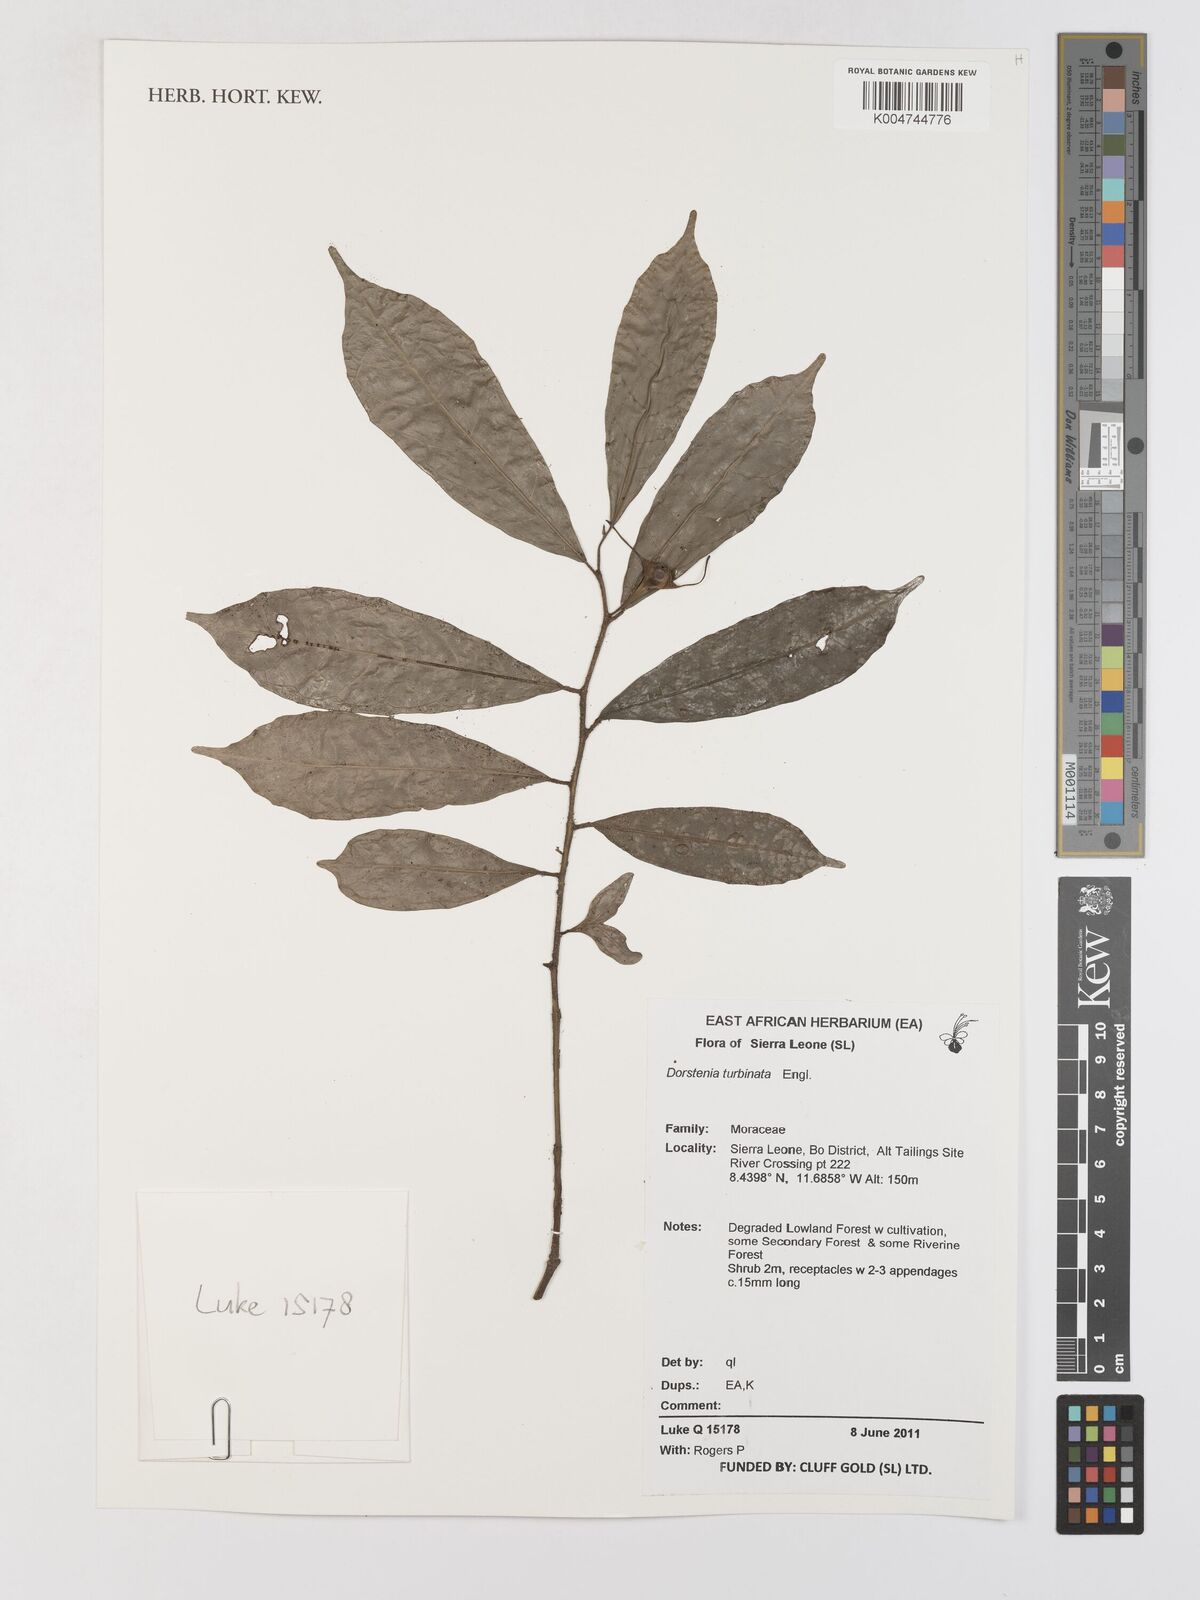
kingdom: Plantae
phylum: Tracheophyta
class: Magnoliopsida
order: Rosales
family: Moraceae
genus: Hijmania
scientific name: Hijmania turbinata
